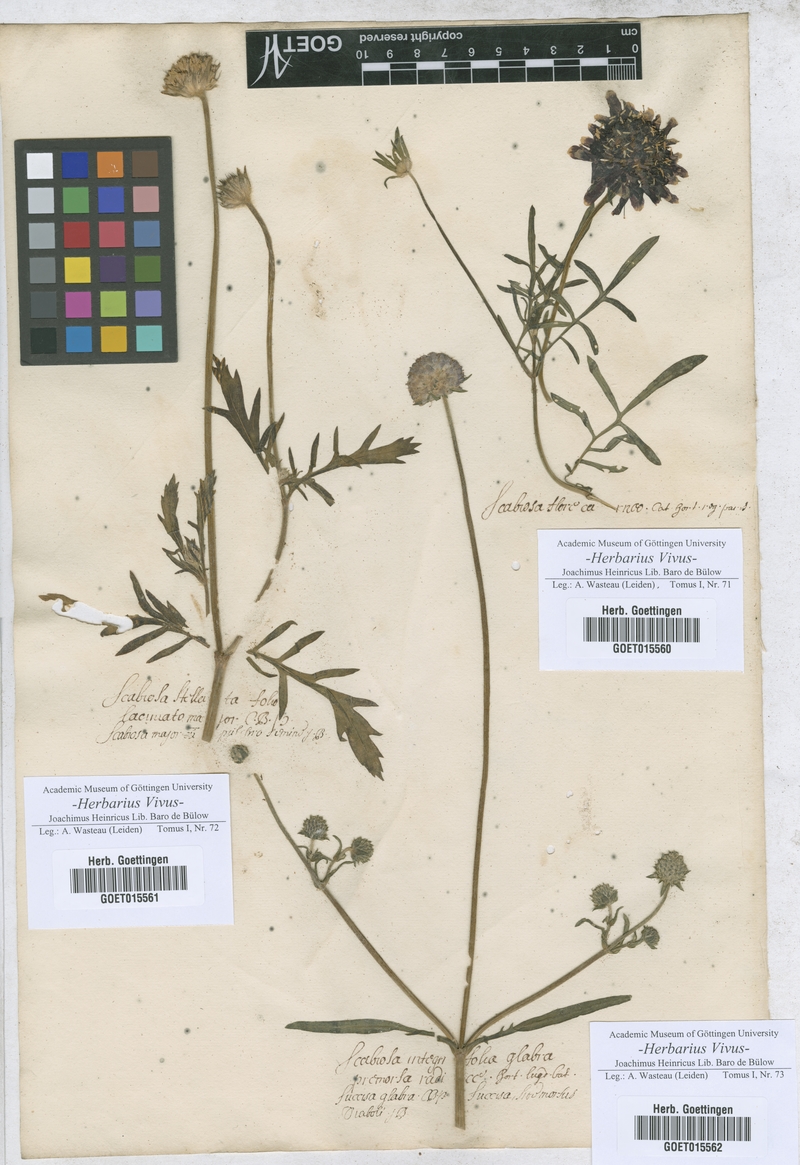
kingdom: Plantae
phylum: Tracheophyta
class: Magnoliopsida
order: Dipsacales
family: Caprifoliaceae
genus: Scabiosa
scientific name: Scabiosa
